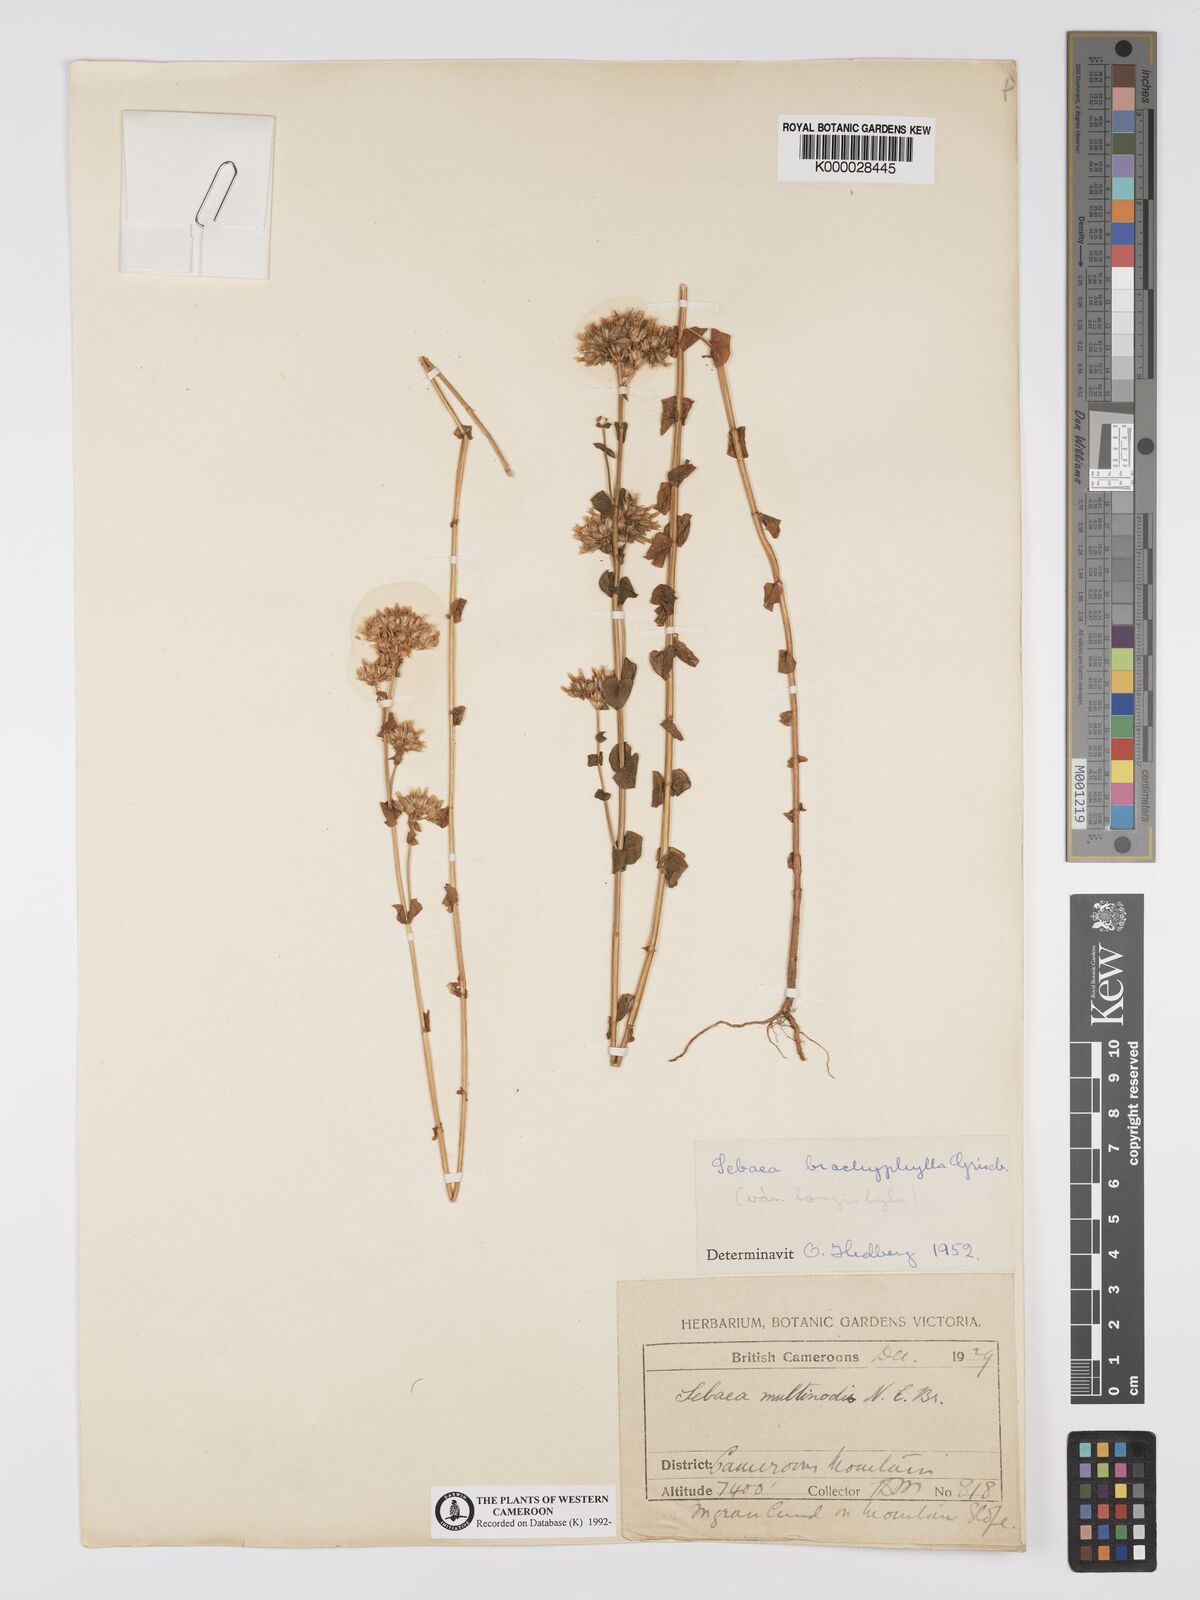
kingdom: Plantae
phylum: Tracheophyta
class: Magnoliopsida
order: Gentianales
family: Gentianaceae
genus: Sebaea
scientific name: Sebaea brachyphylla
